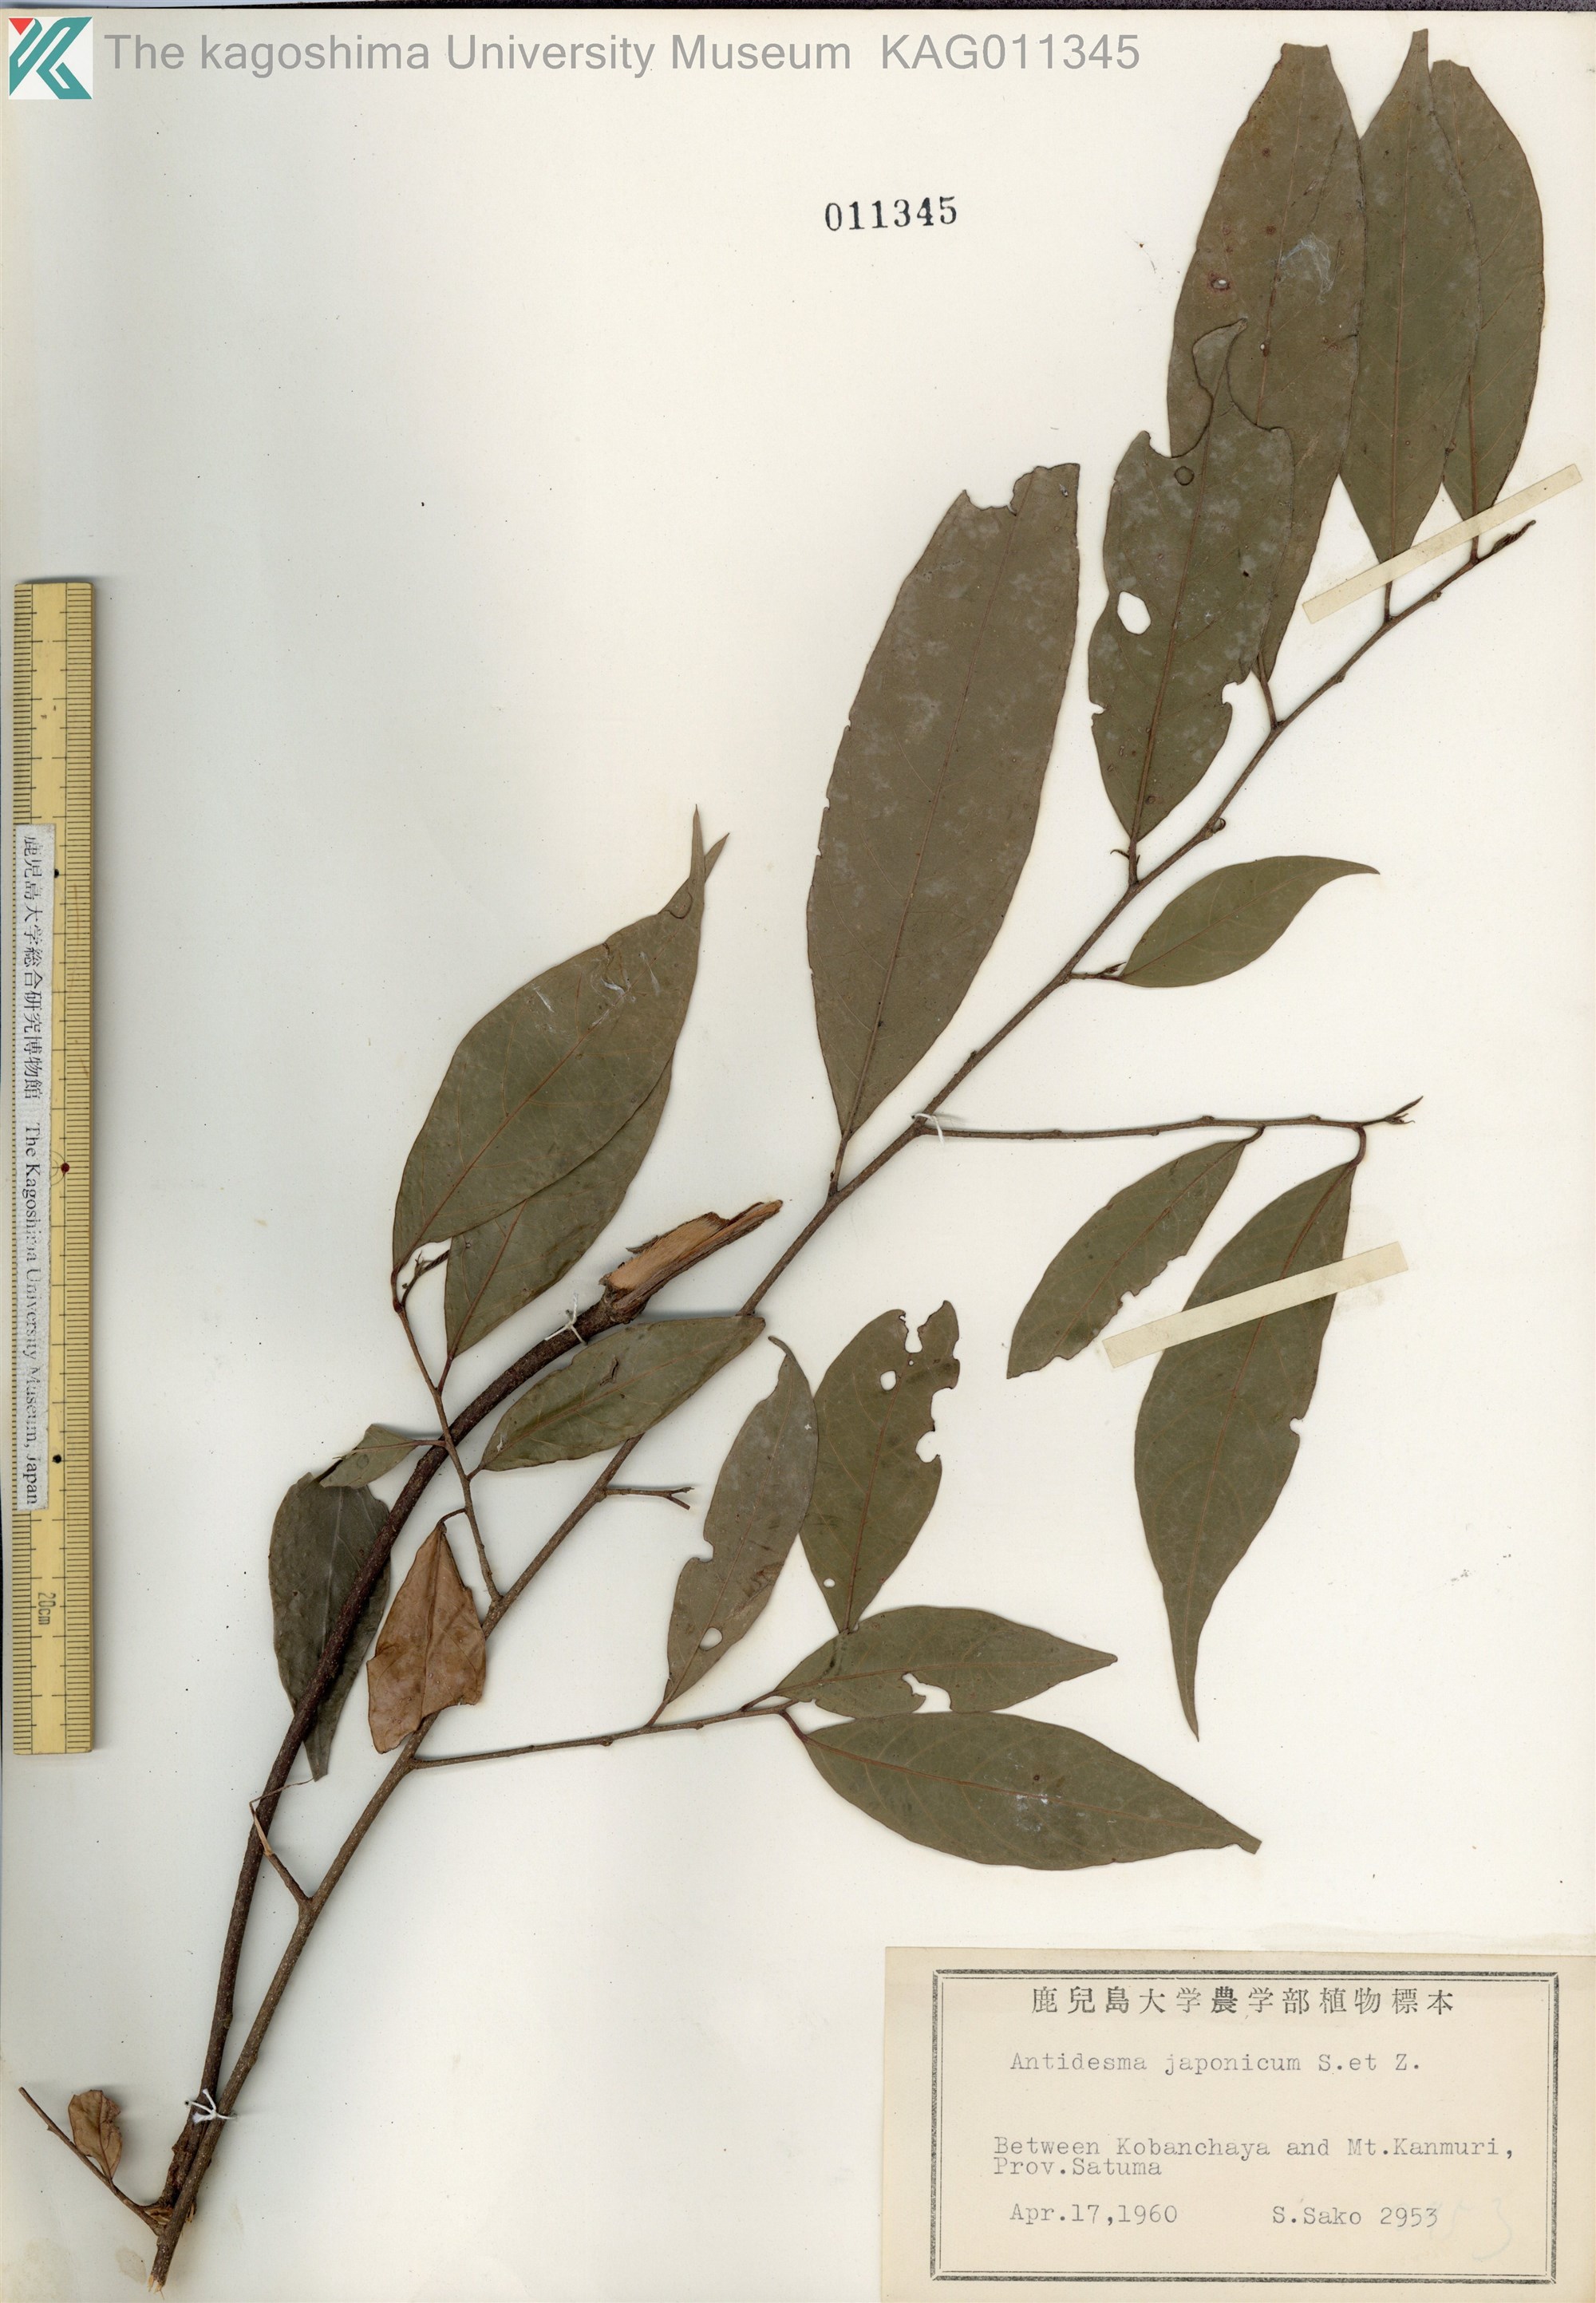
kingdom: Plantae
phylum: Tracheophyta
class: Magnoliopsida
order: Malpighiales
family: Phyllanthaceae
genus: Antidesma
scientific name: Antidesma japonicum
